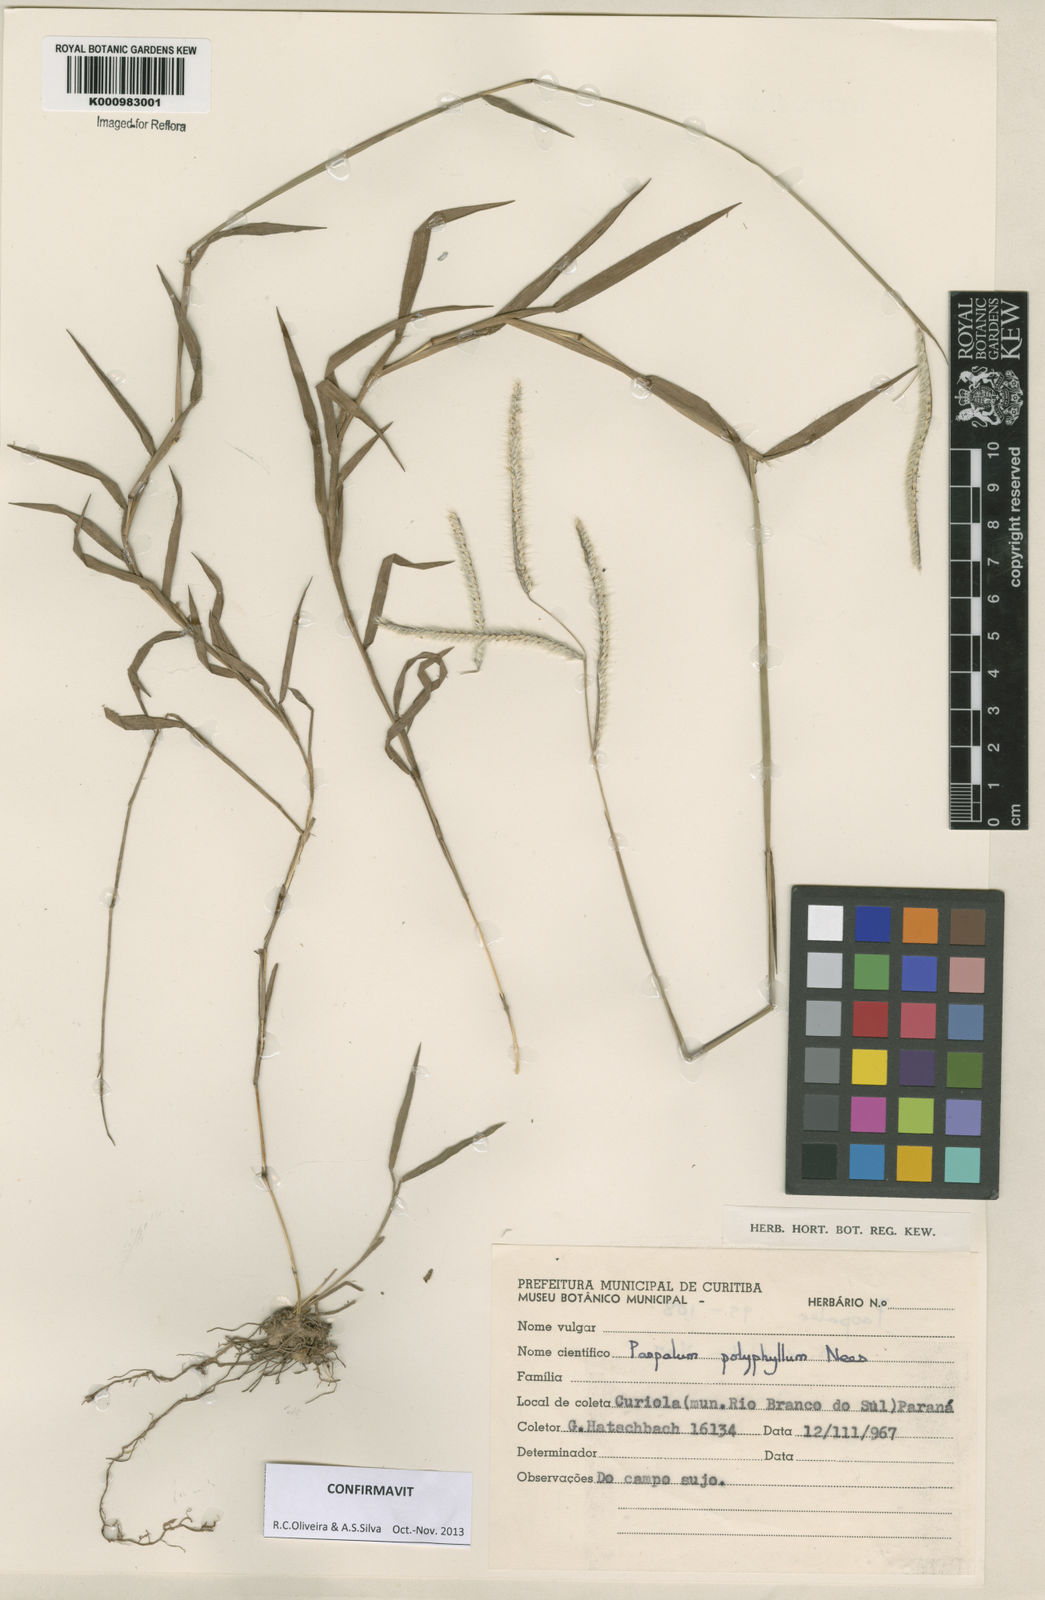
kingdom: Plantae
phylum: Tracheophyta
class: Liliopsida
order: Poales
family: Poaceae
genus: Paspalum
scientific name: Paspalum
